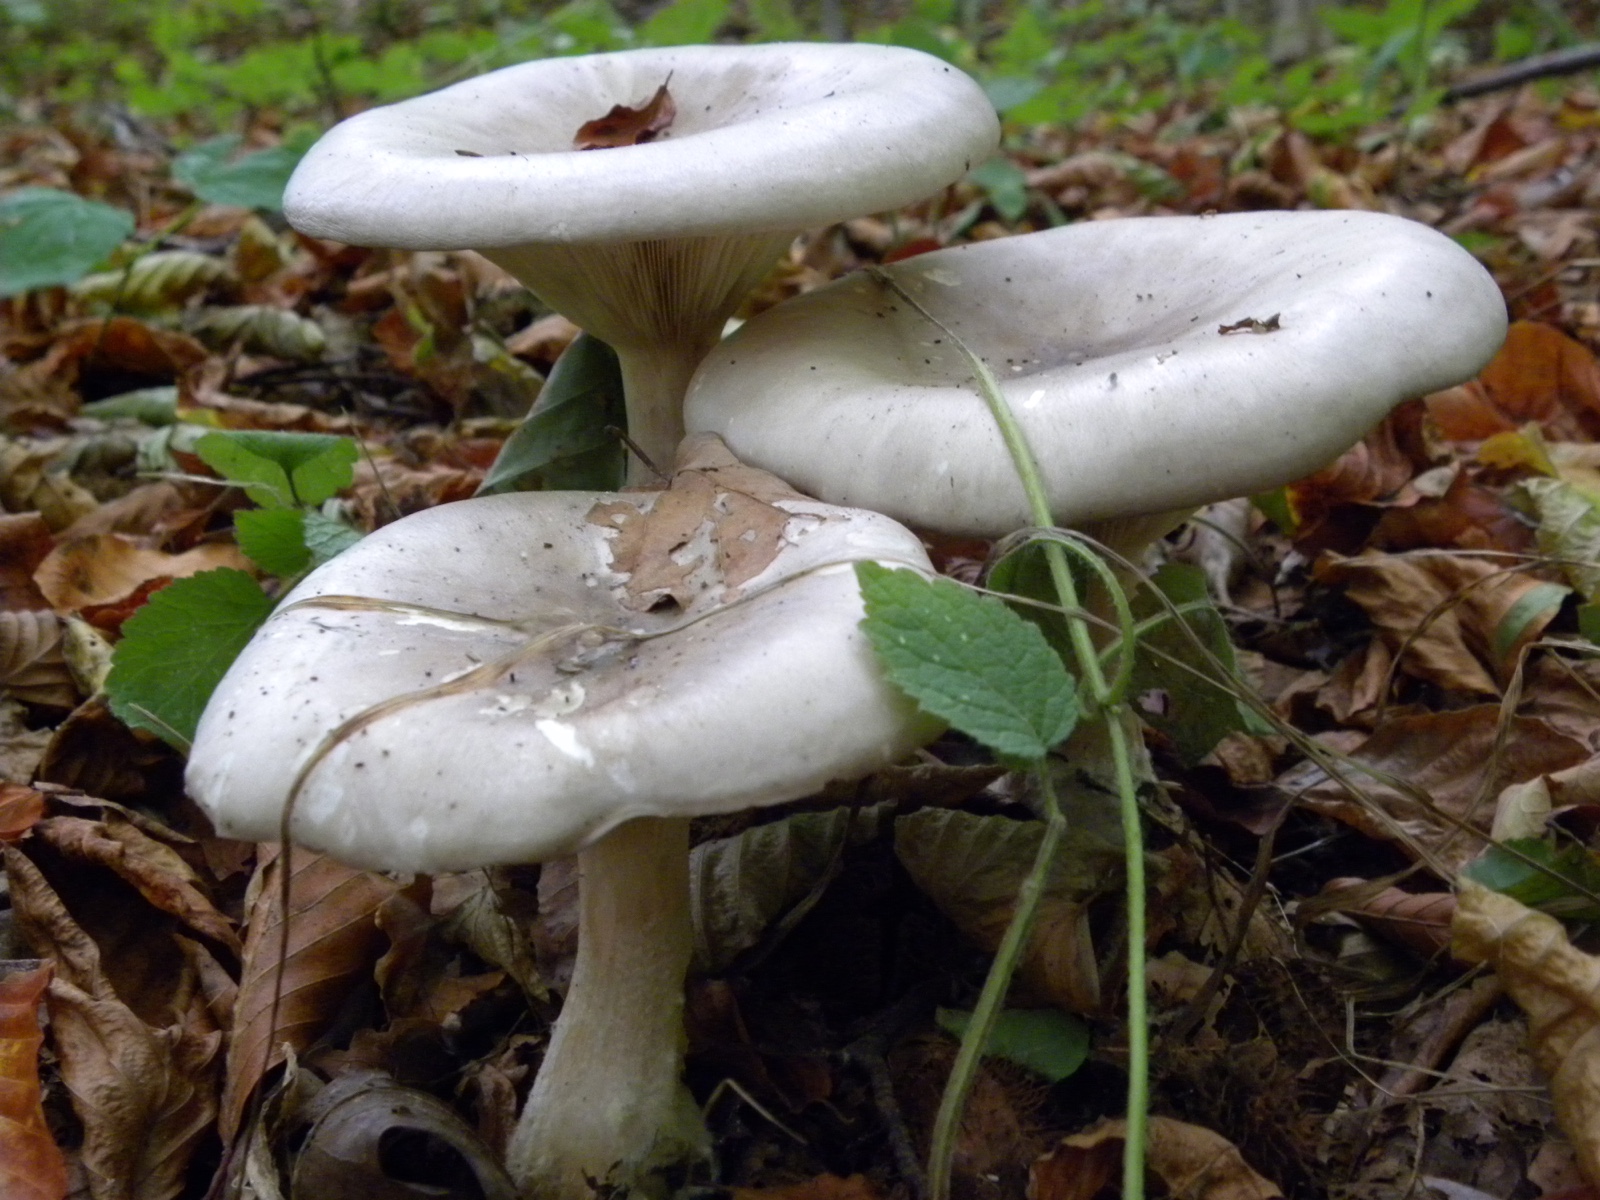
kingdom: Fungi
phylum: Basidiomycota
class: Agaricomycetes
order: Agaricales
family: Tricholomataceae
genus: Clitocybe
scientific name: Clitocybe nebularis
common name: tåge-tragthat
